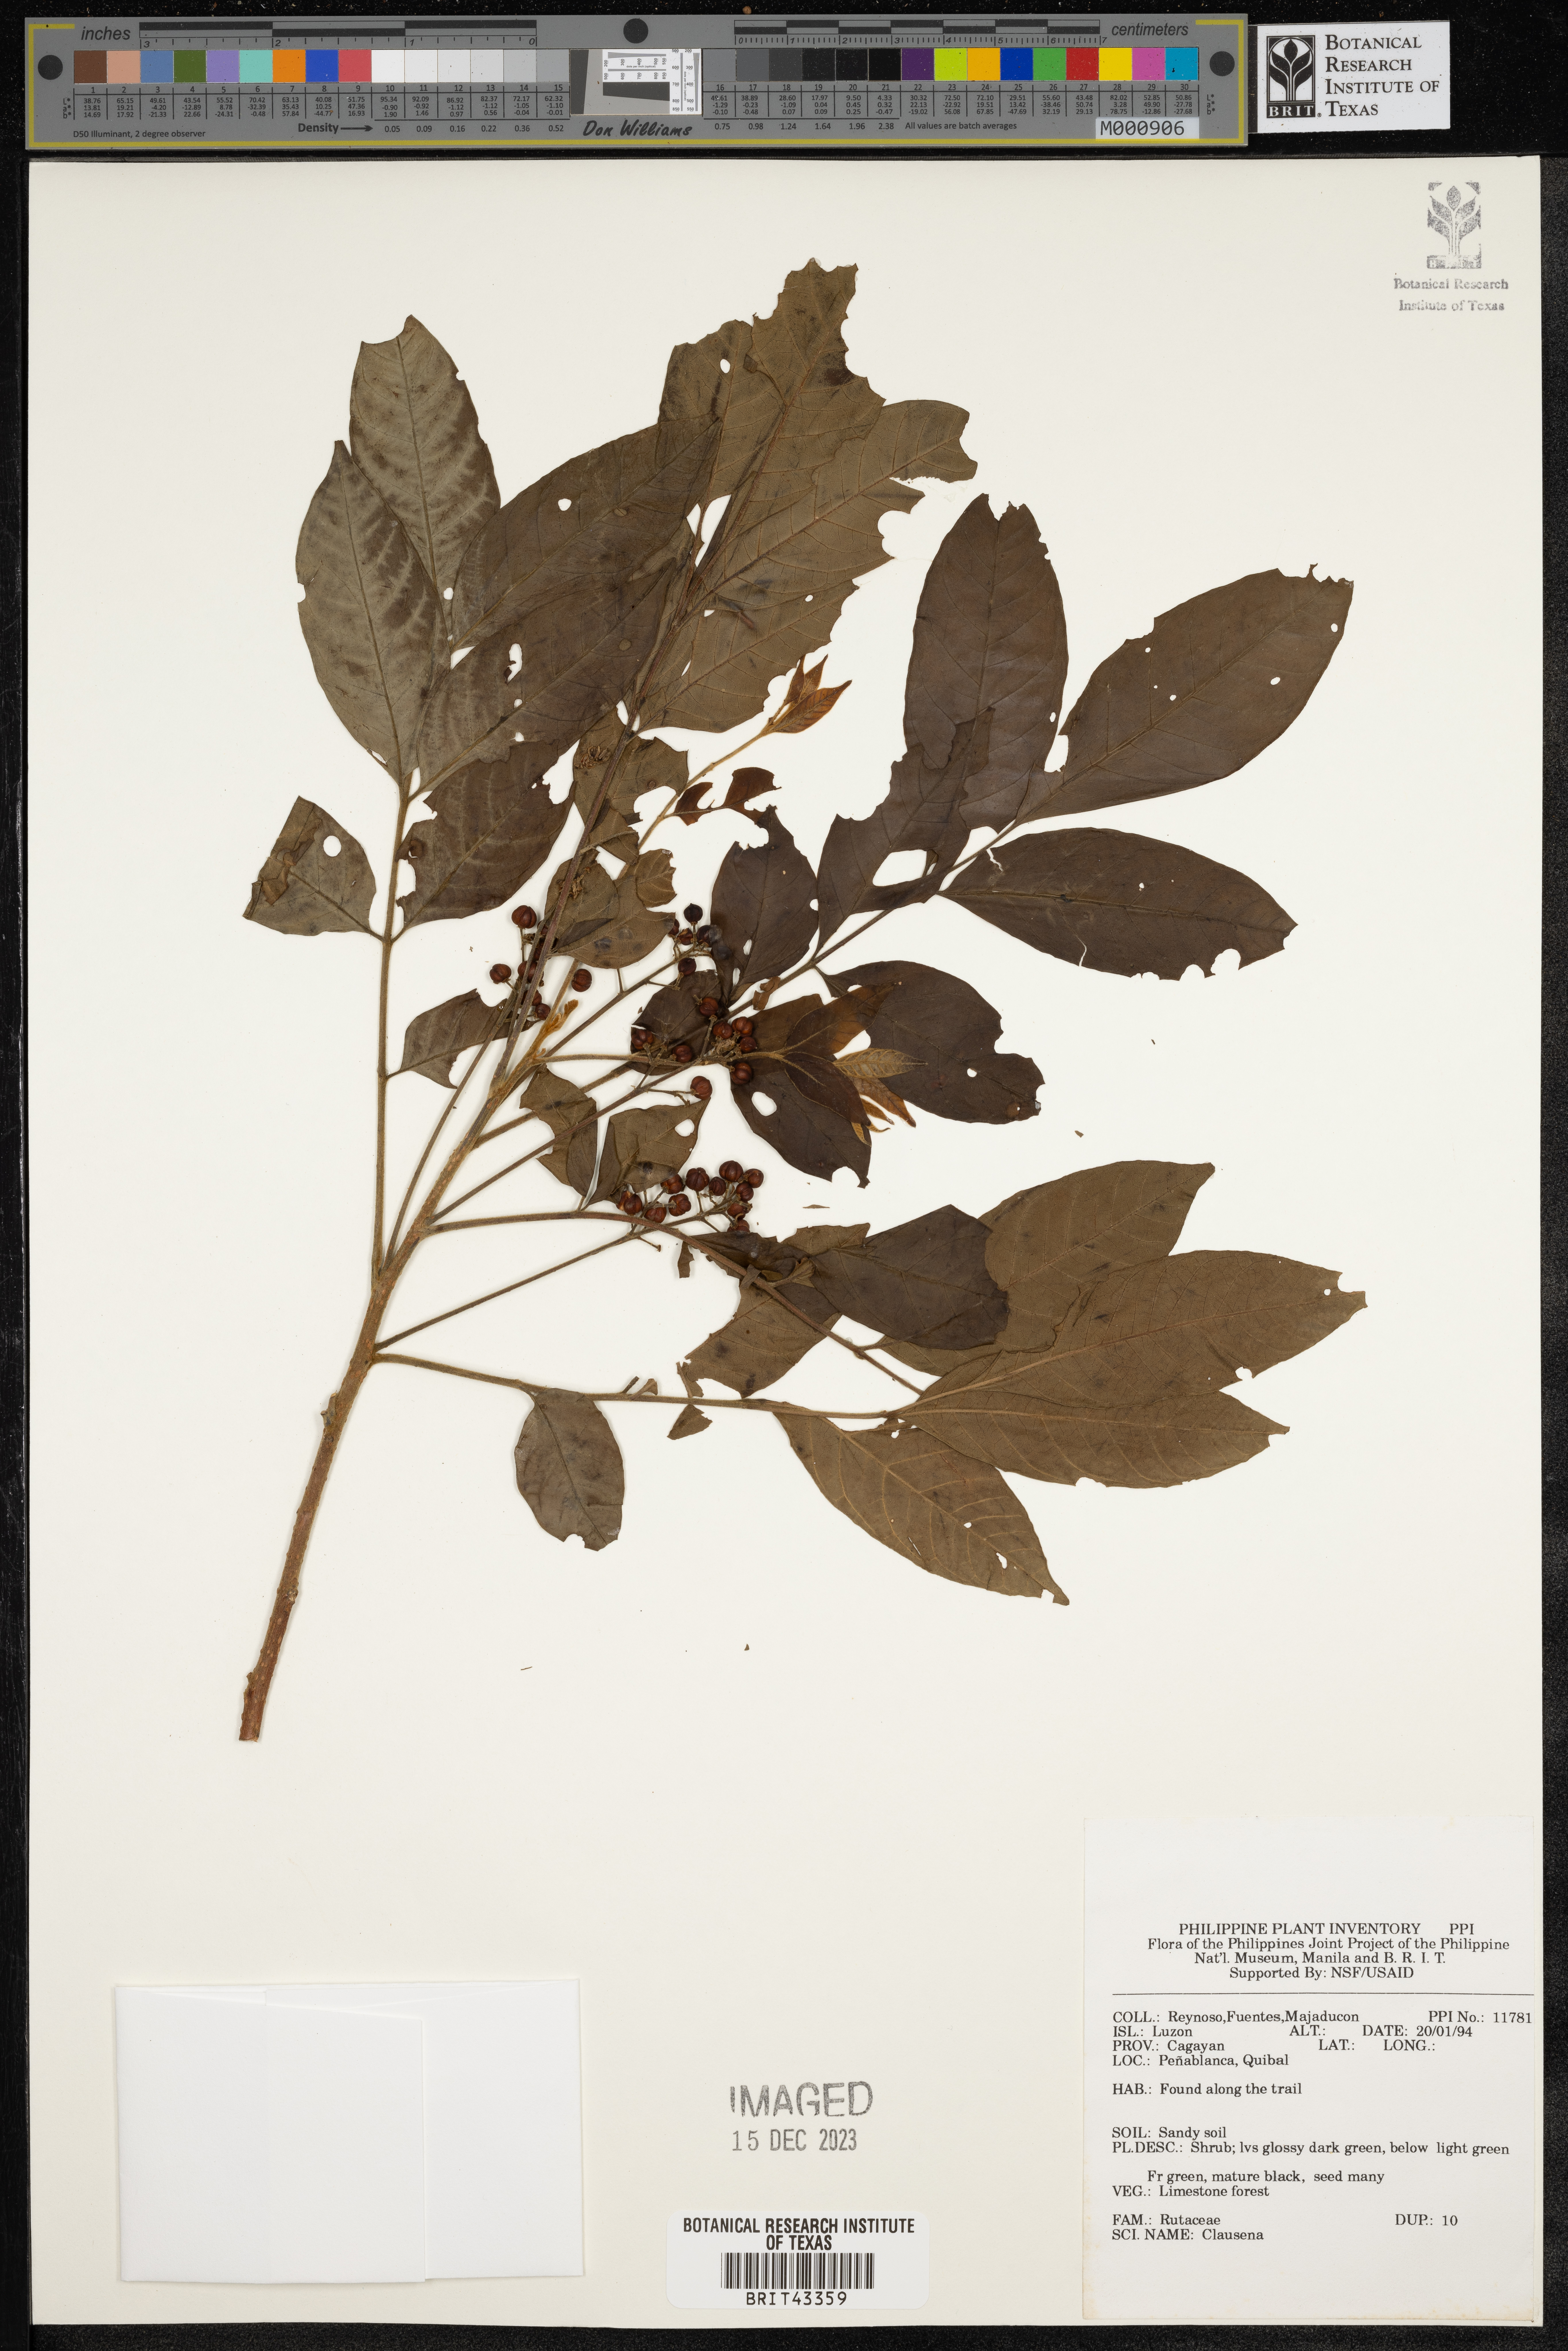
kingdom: Plantae
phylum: Tracheophyta
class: Magnoliopsida
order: Sapindales
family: Rutaceae
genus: Clausena
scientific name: Clausena
